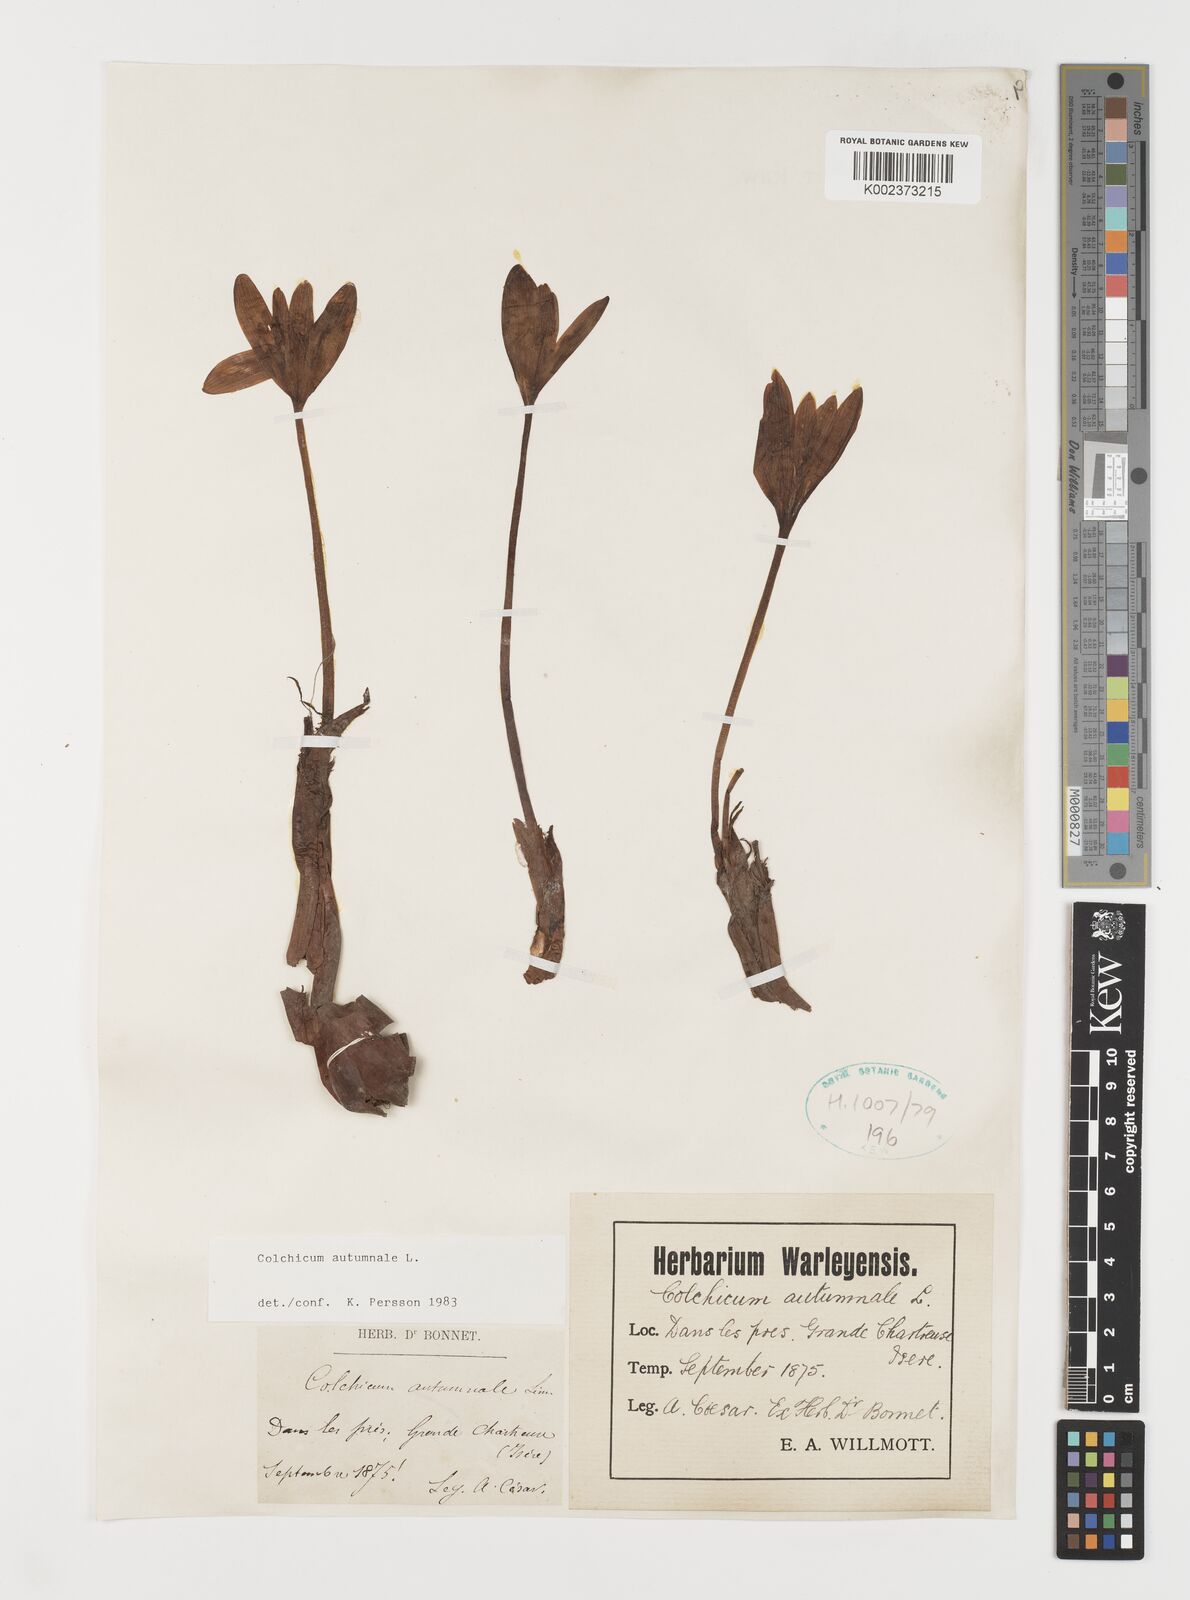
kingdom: Plantae
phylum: Tracheophyta
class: Liliopsida
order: Liliales
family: Colchicaceae
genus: Colchicum
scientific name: Colchicum autumnale
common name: Autumn crocus
